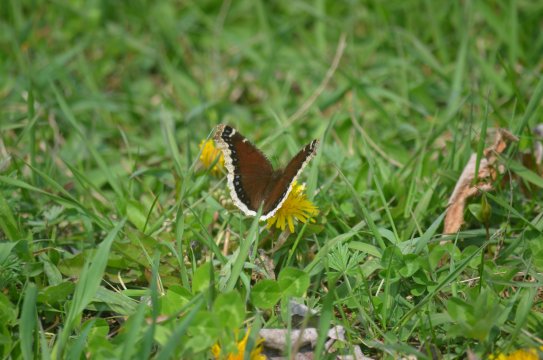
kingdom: Animalia
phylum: Arthropoda
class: Insecta
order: Lepidoptera
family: Nymphalidae
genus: Nymphalis
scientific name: Nymphalis antiopa
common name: Mourning Cloak
